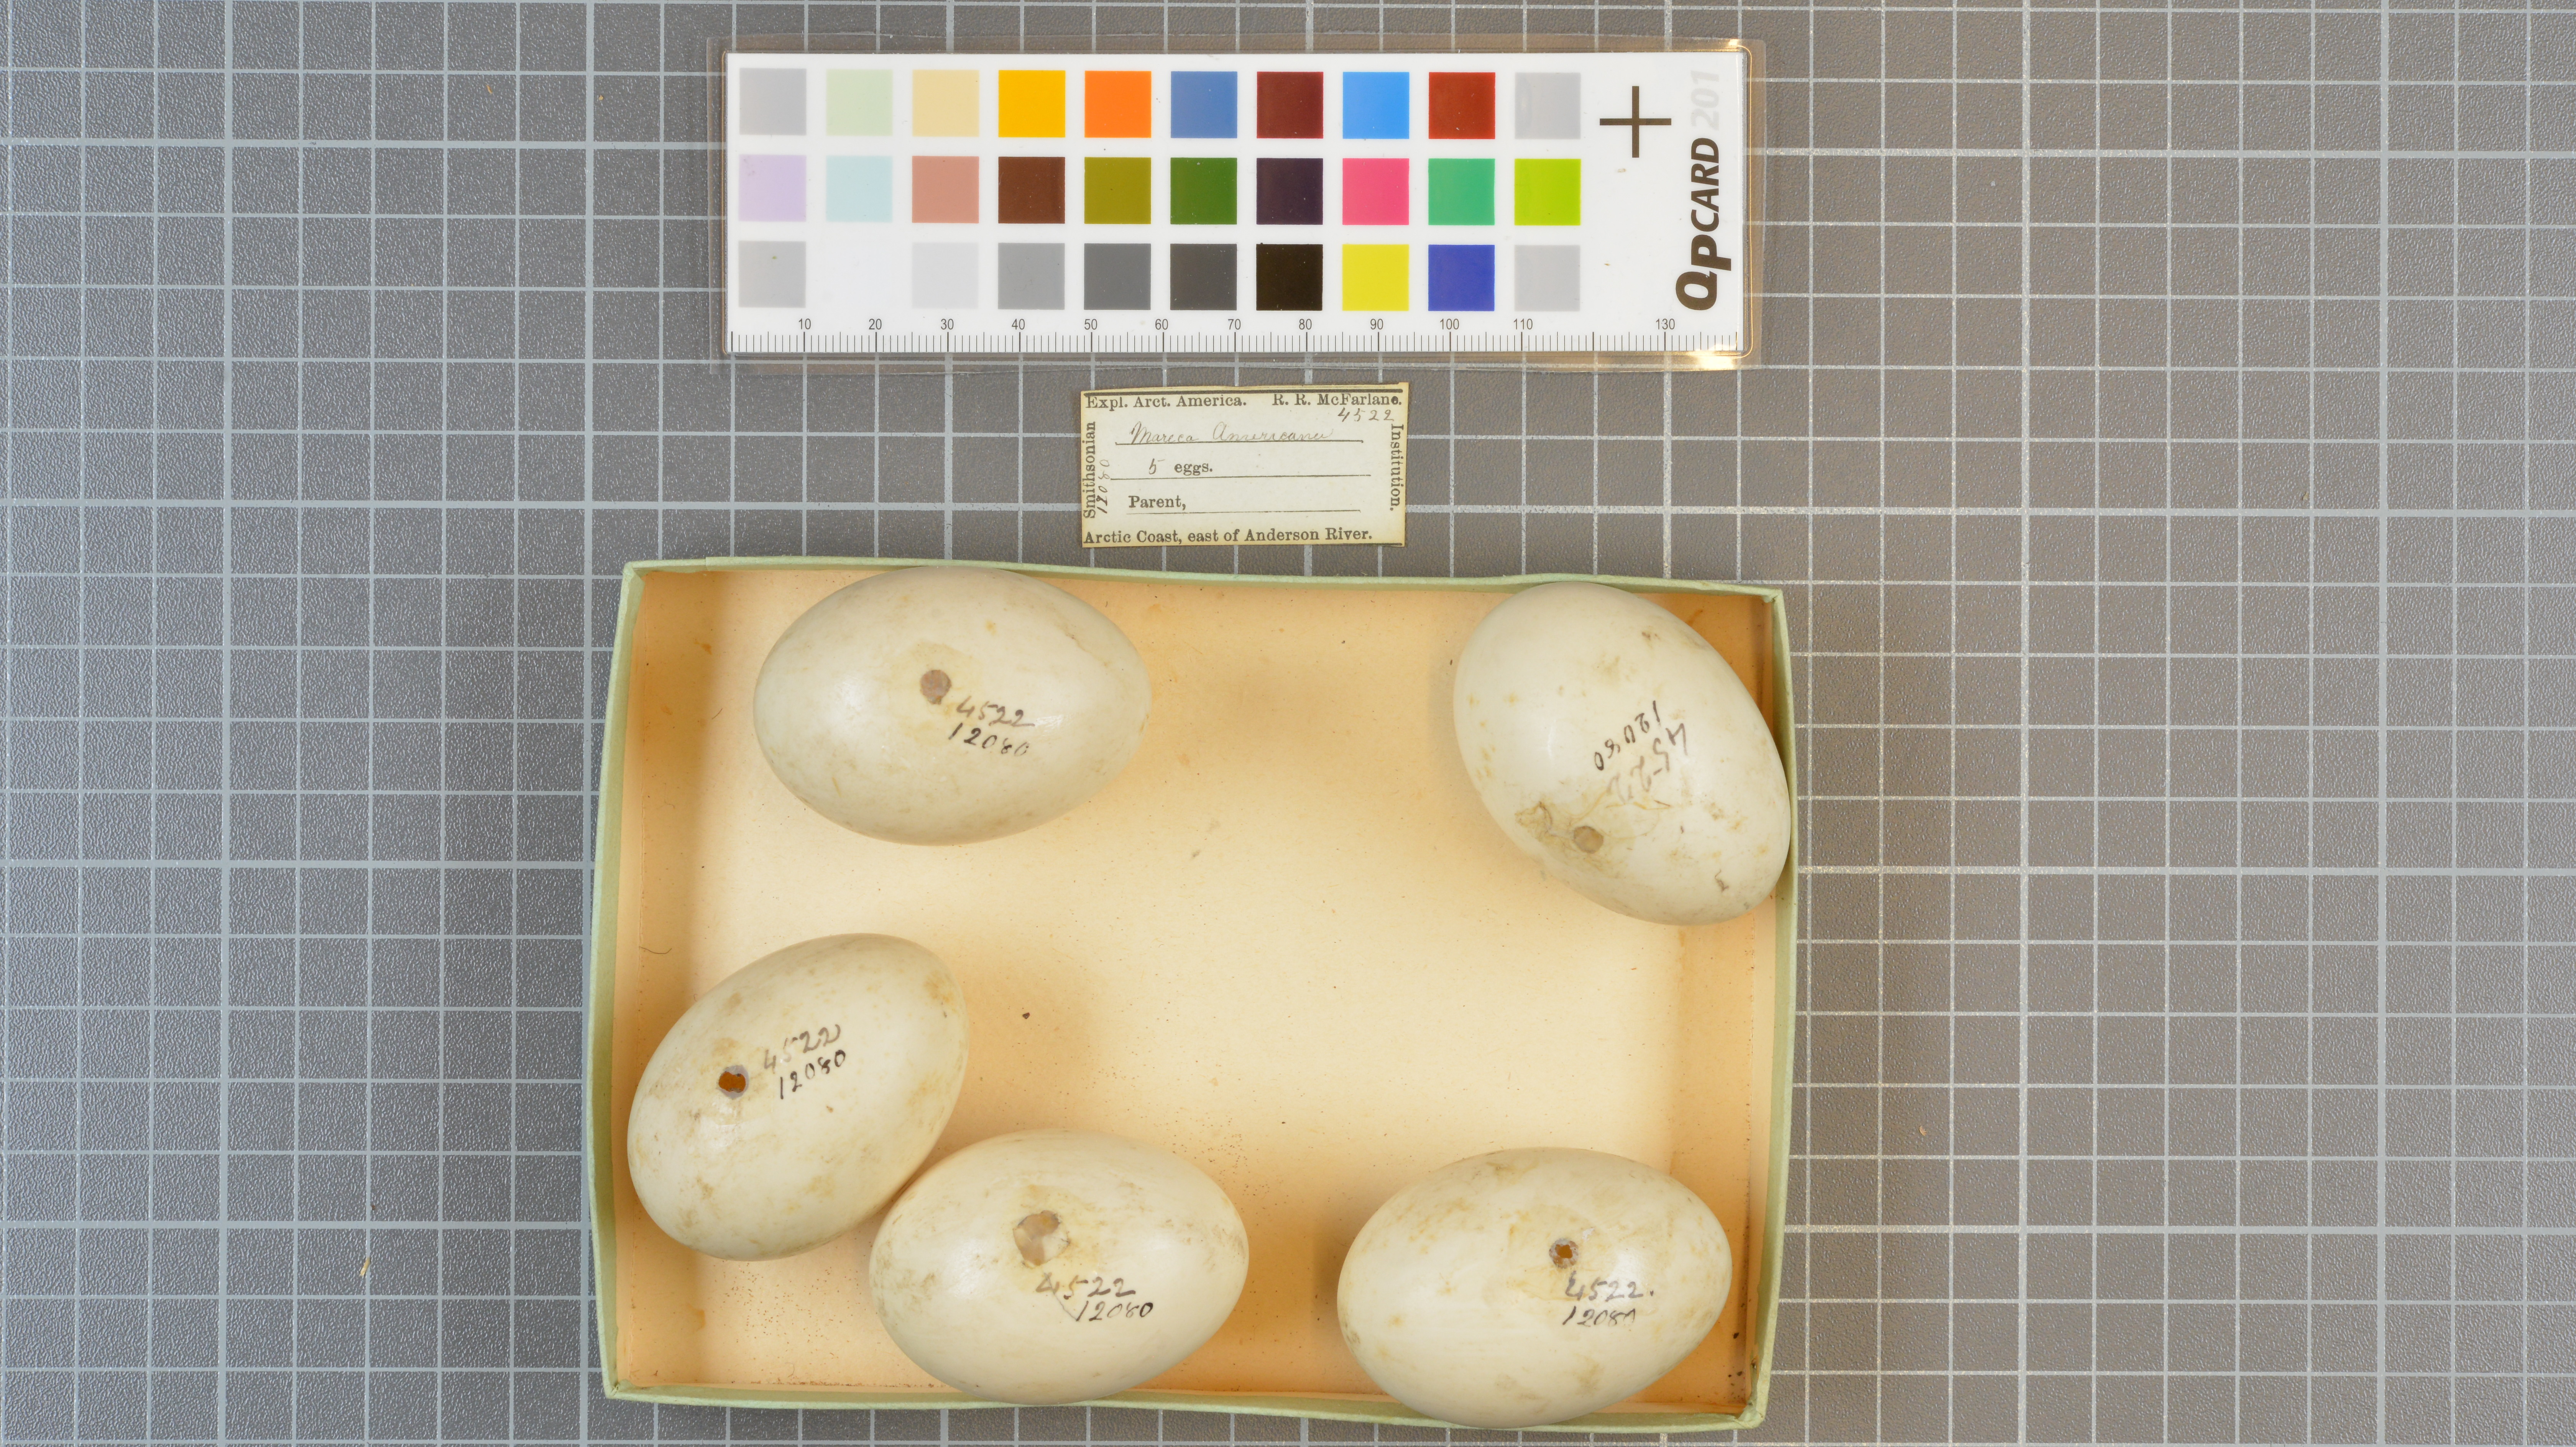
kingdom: Animalia
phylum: Chordata
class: Aves
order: Anseriformes
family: Anatidae
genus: Mareca
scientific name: Mareca americana
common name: American wigeon
